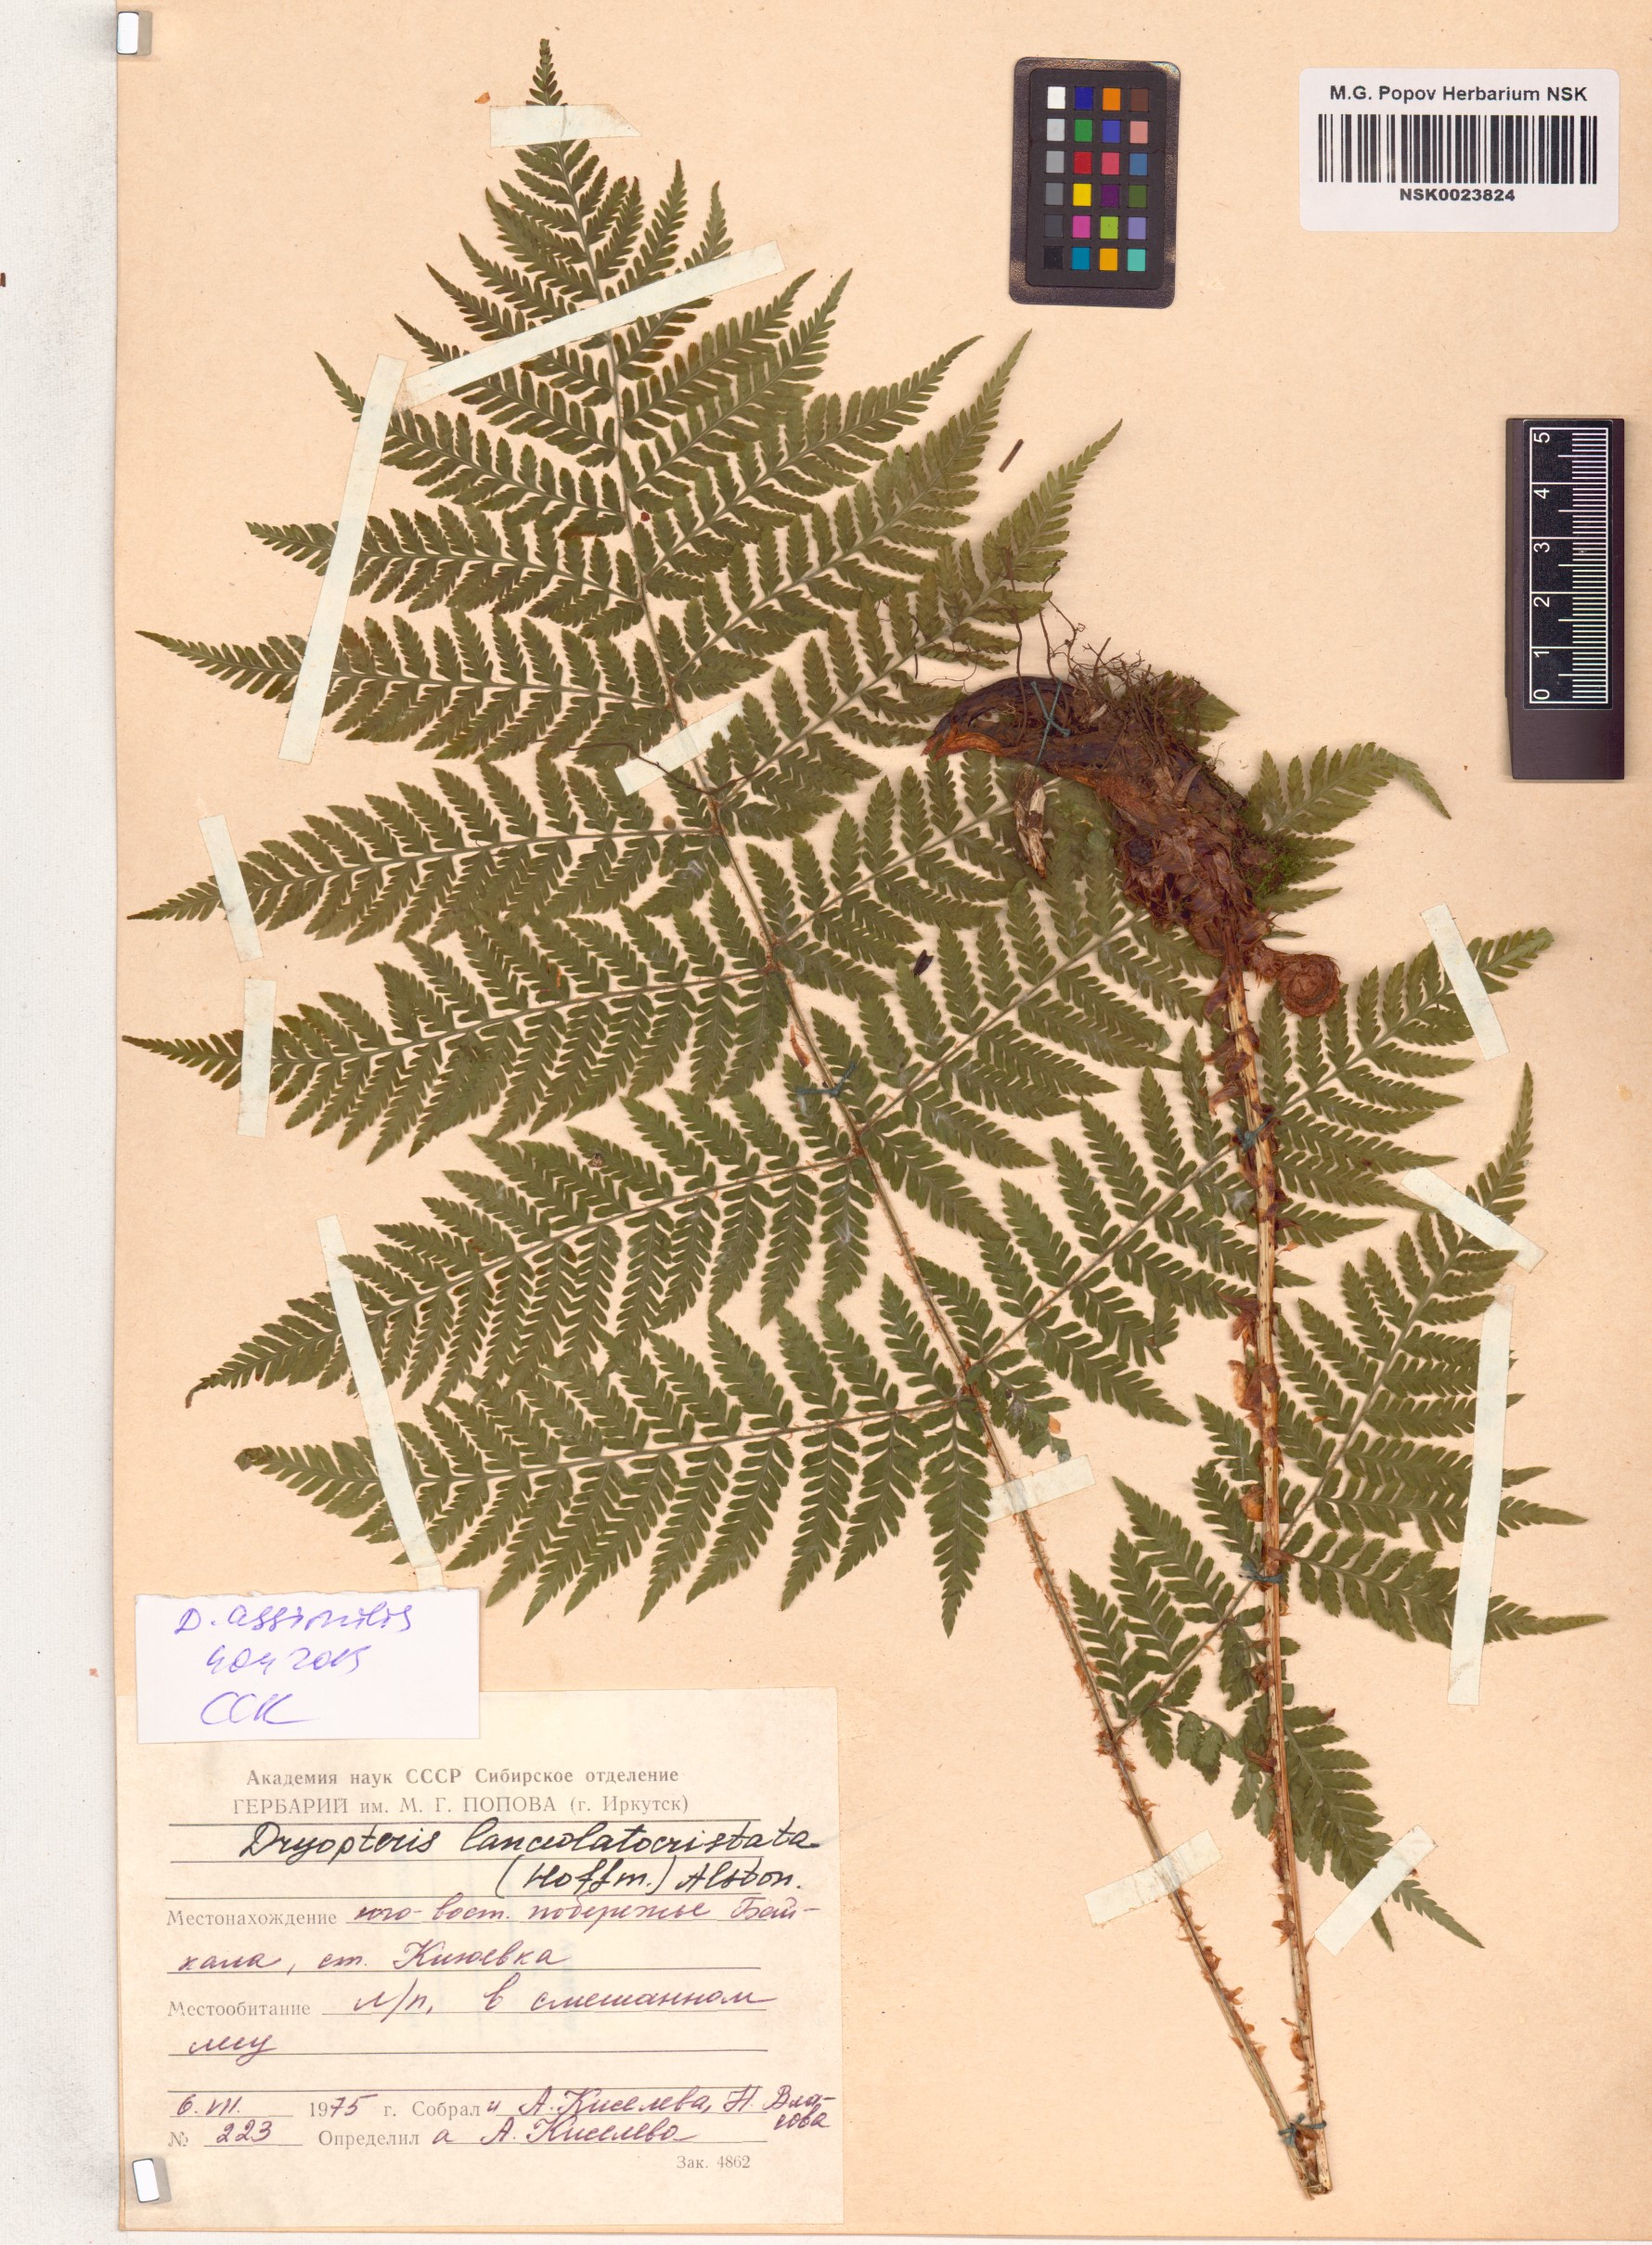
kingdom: Plantae
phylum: Tracheophyta
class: Polypodiopsida
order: Polypodiales
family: Dryopteridaceae
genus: Dryopteris
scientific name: Dryopteris expansa
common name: Northern buckler fern
